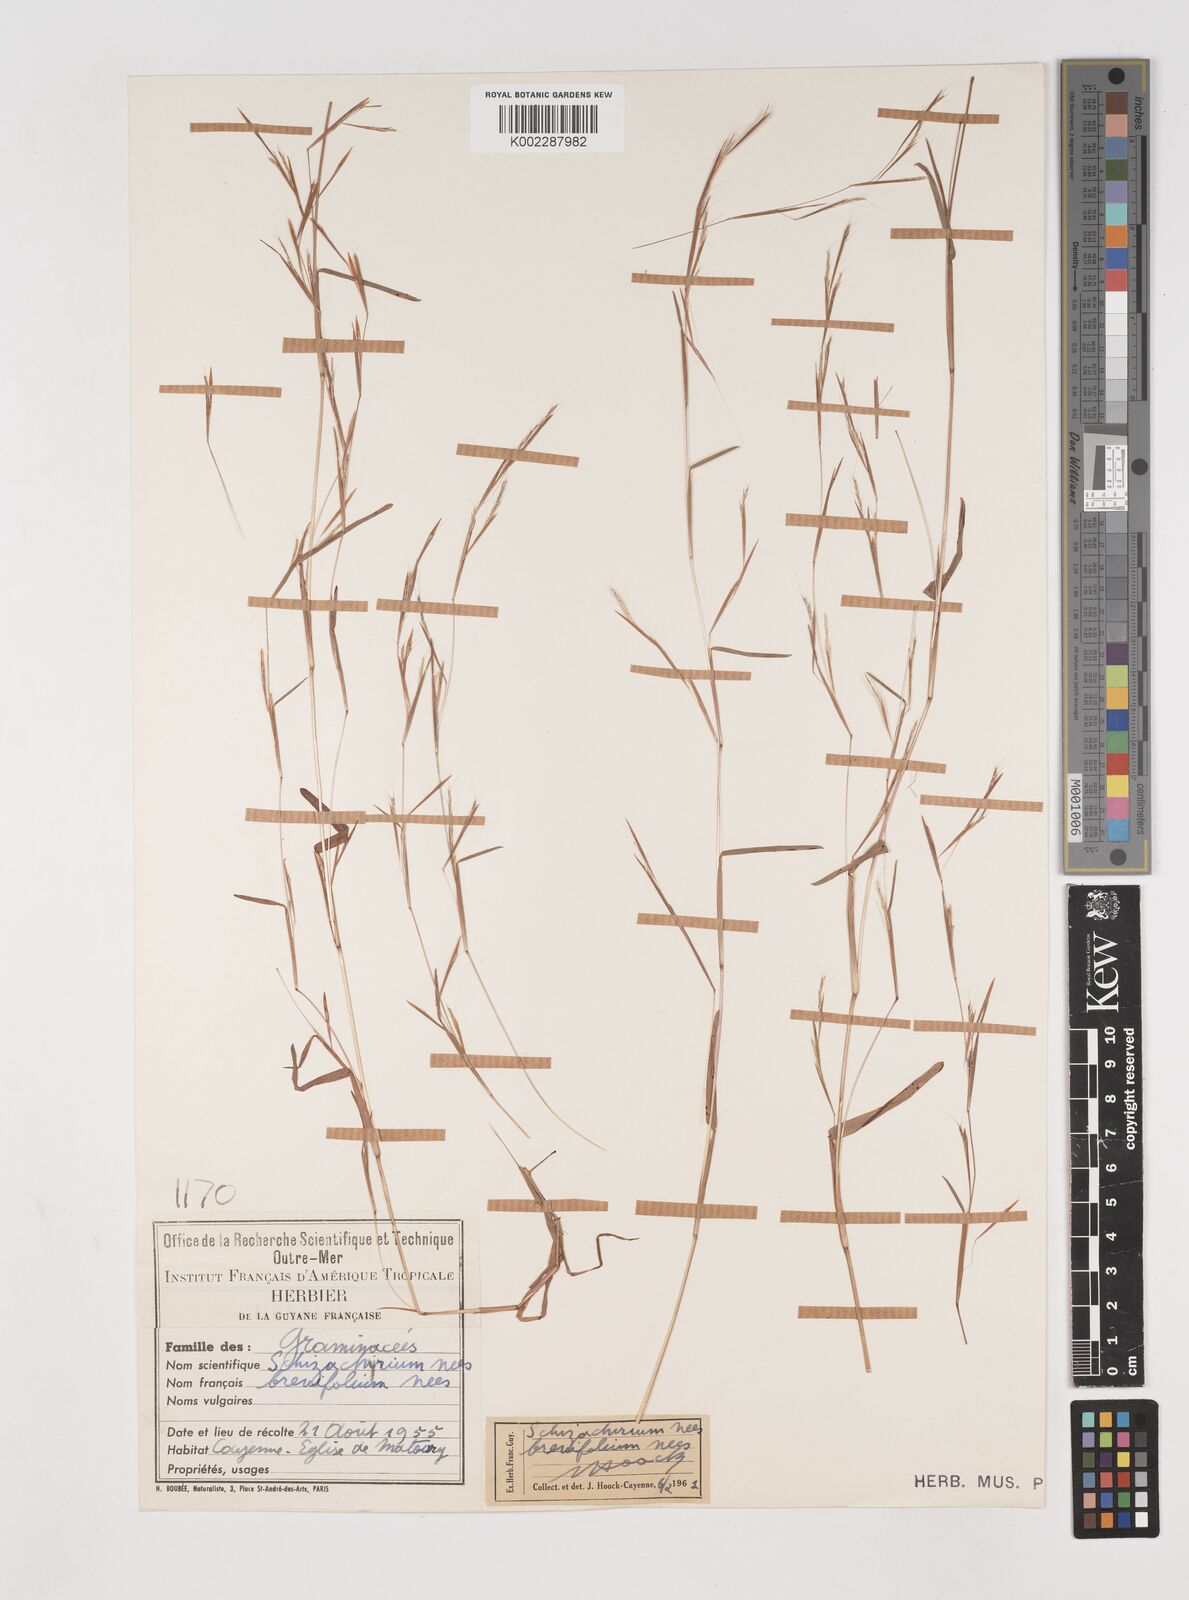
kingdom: Plantae
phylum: Tracheophyta
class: Liliopsida
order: Poales
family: Poaceae
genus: Schizachyrium
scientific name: Schizachyrium brevifolium
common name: Serillo dulce
